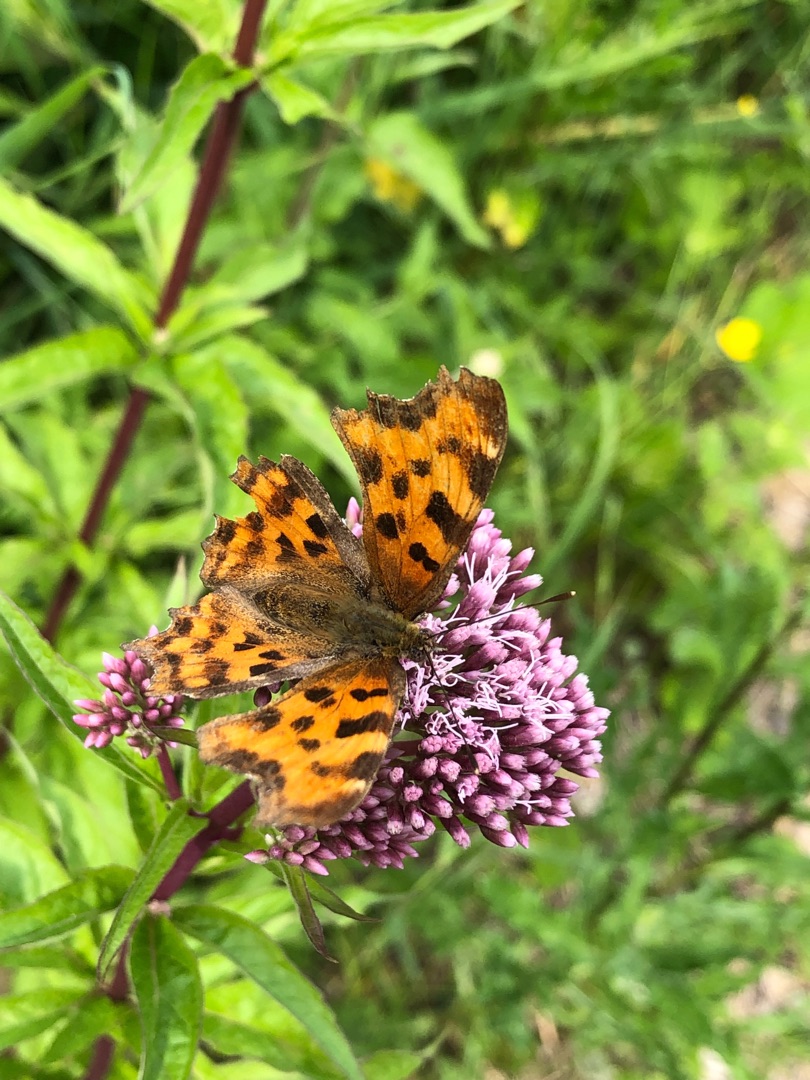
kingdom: Animalia
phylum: Arthropoda
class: Insecta
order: Lepidoptera
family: Nymphalidae
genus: Polygonia
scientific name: Polygonia c-album
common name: Det hvide C
